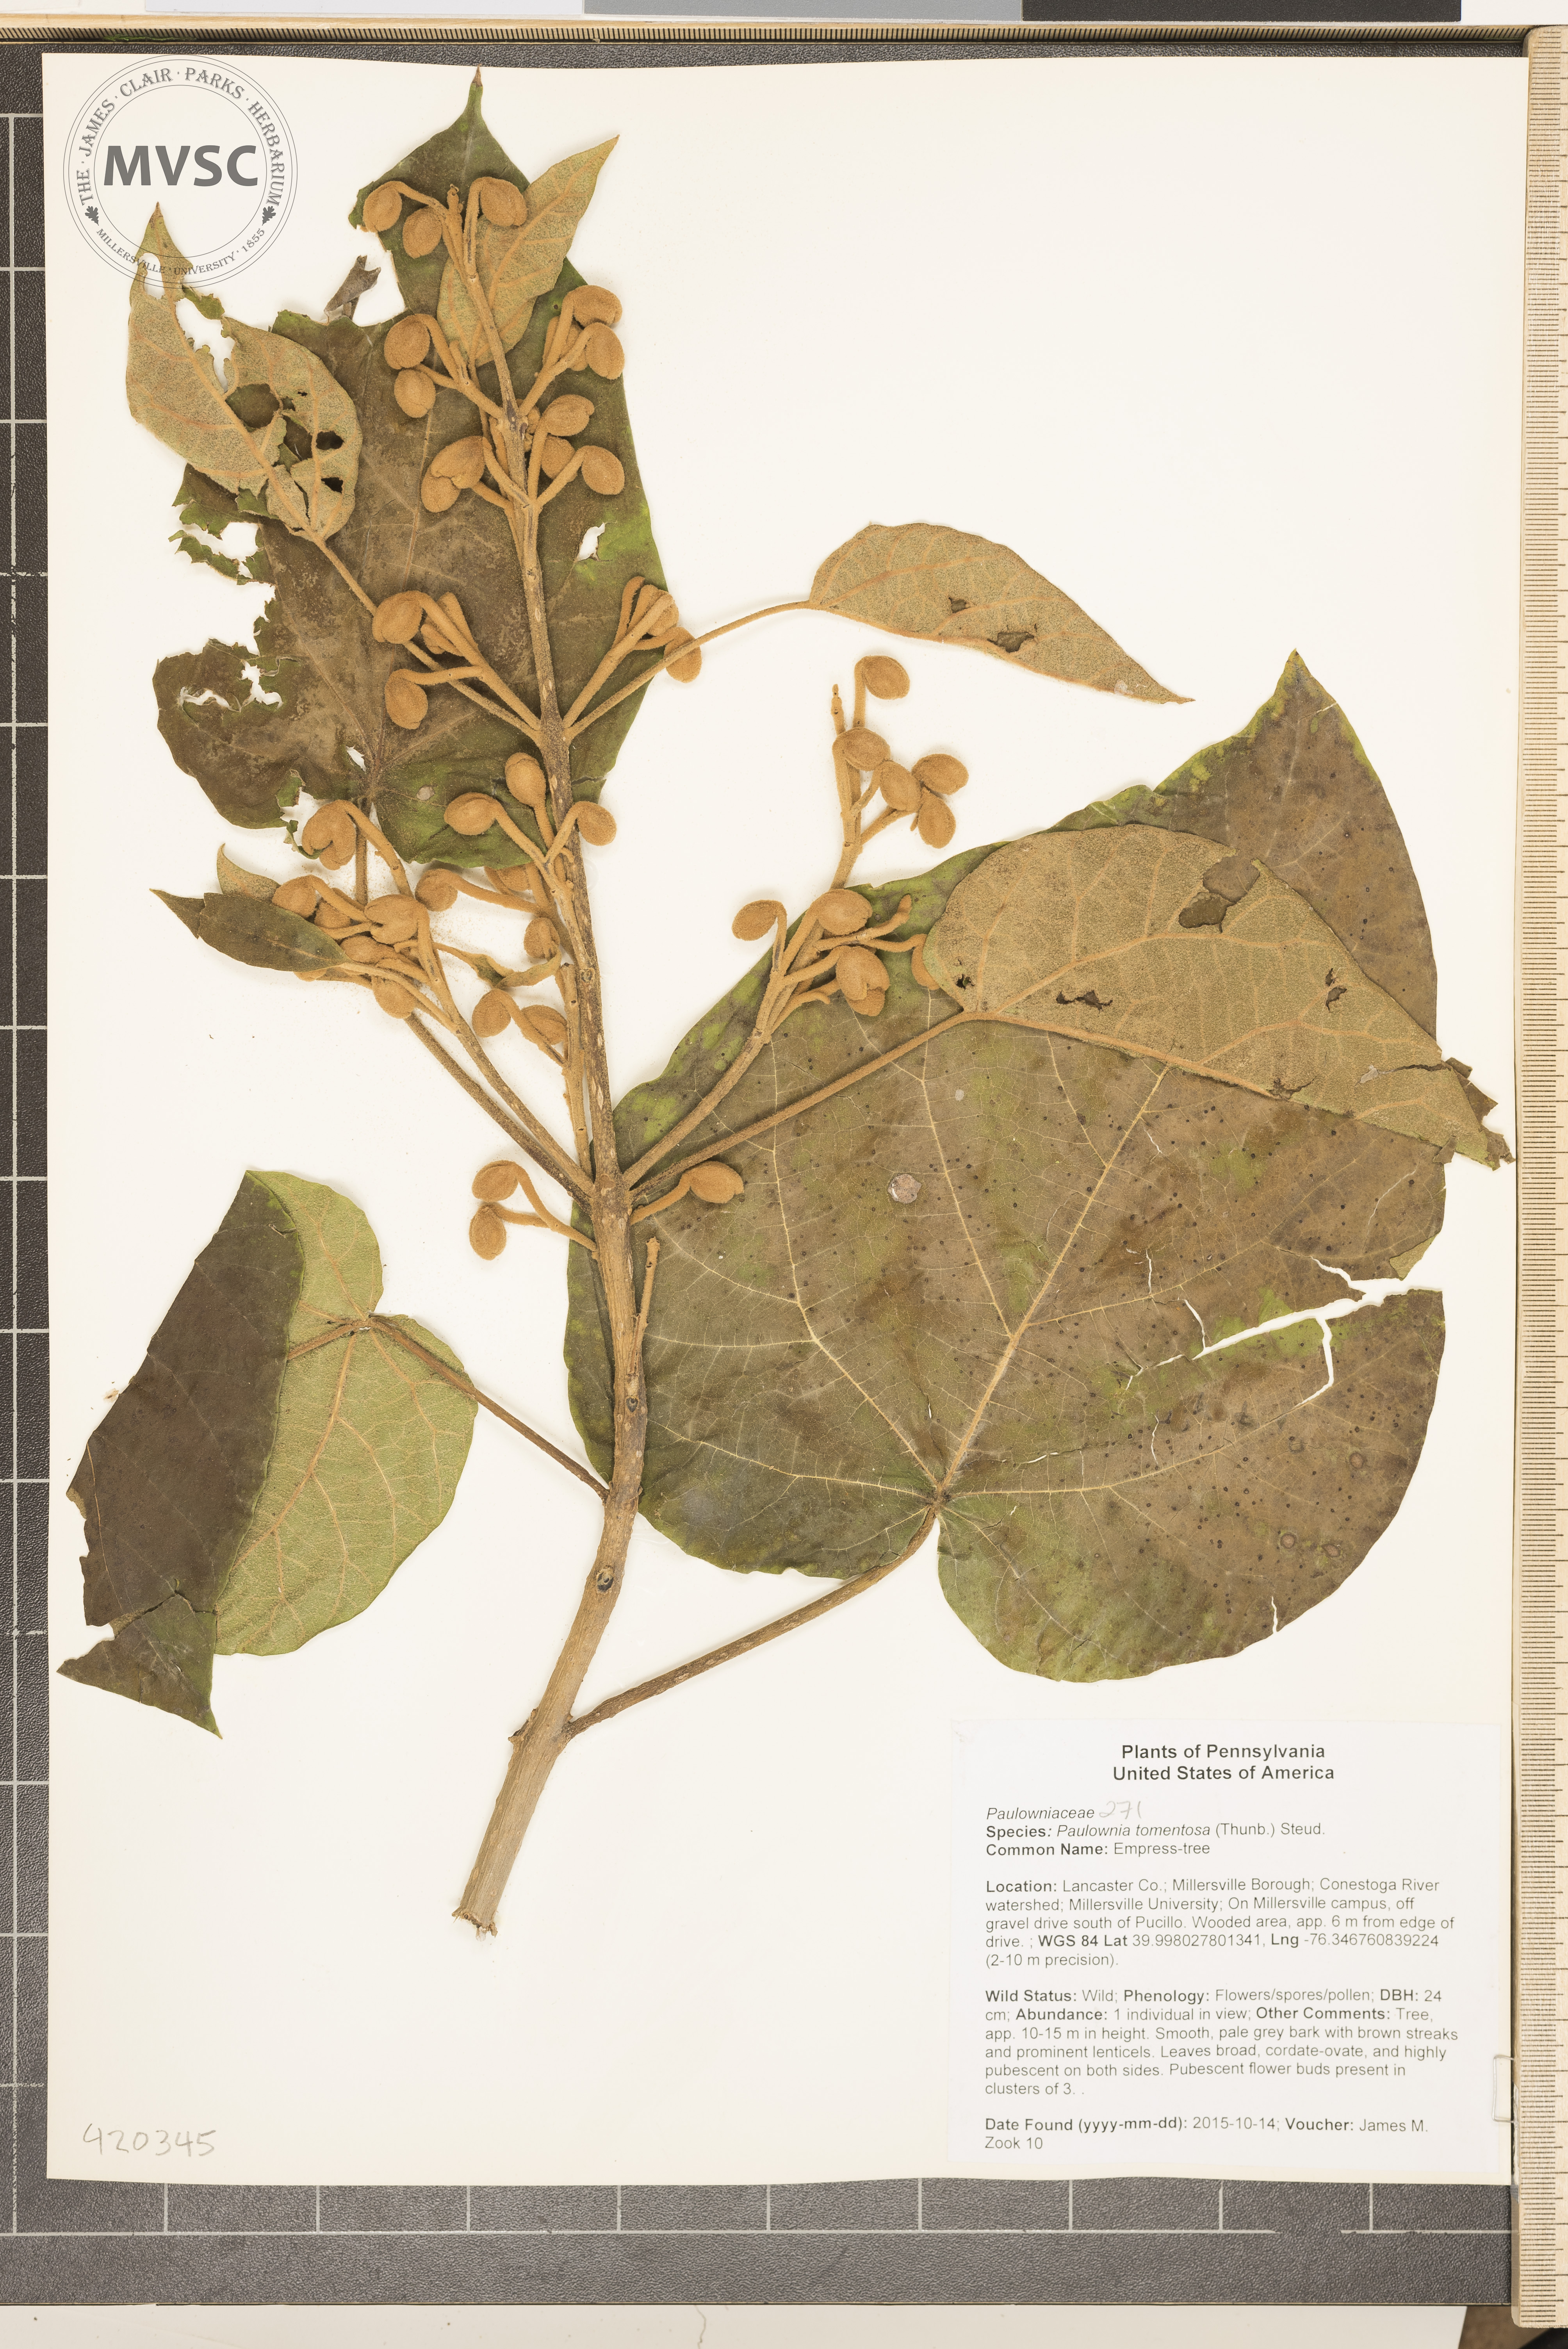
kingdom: Plantae
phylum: Tracheophyta
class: Magnoliopsida
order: Lamiales
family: Paulowniaceae
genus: Paulownia
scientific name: Paulownia tomentosa
